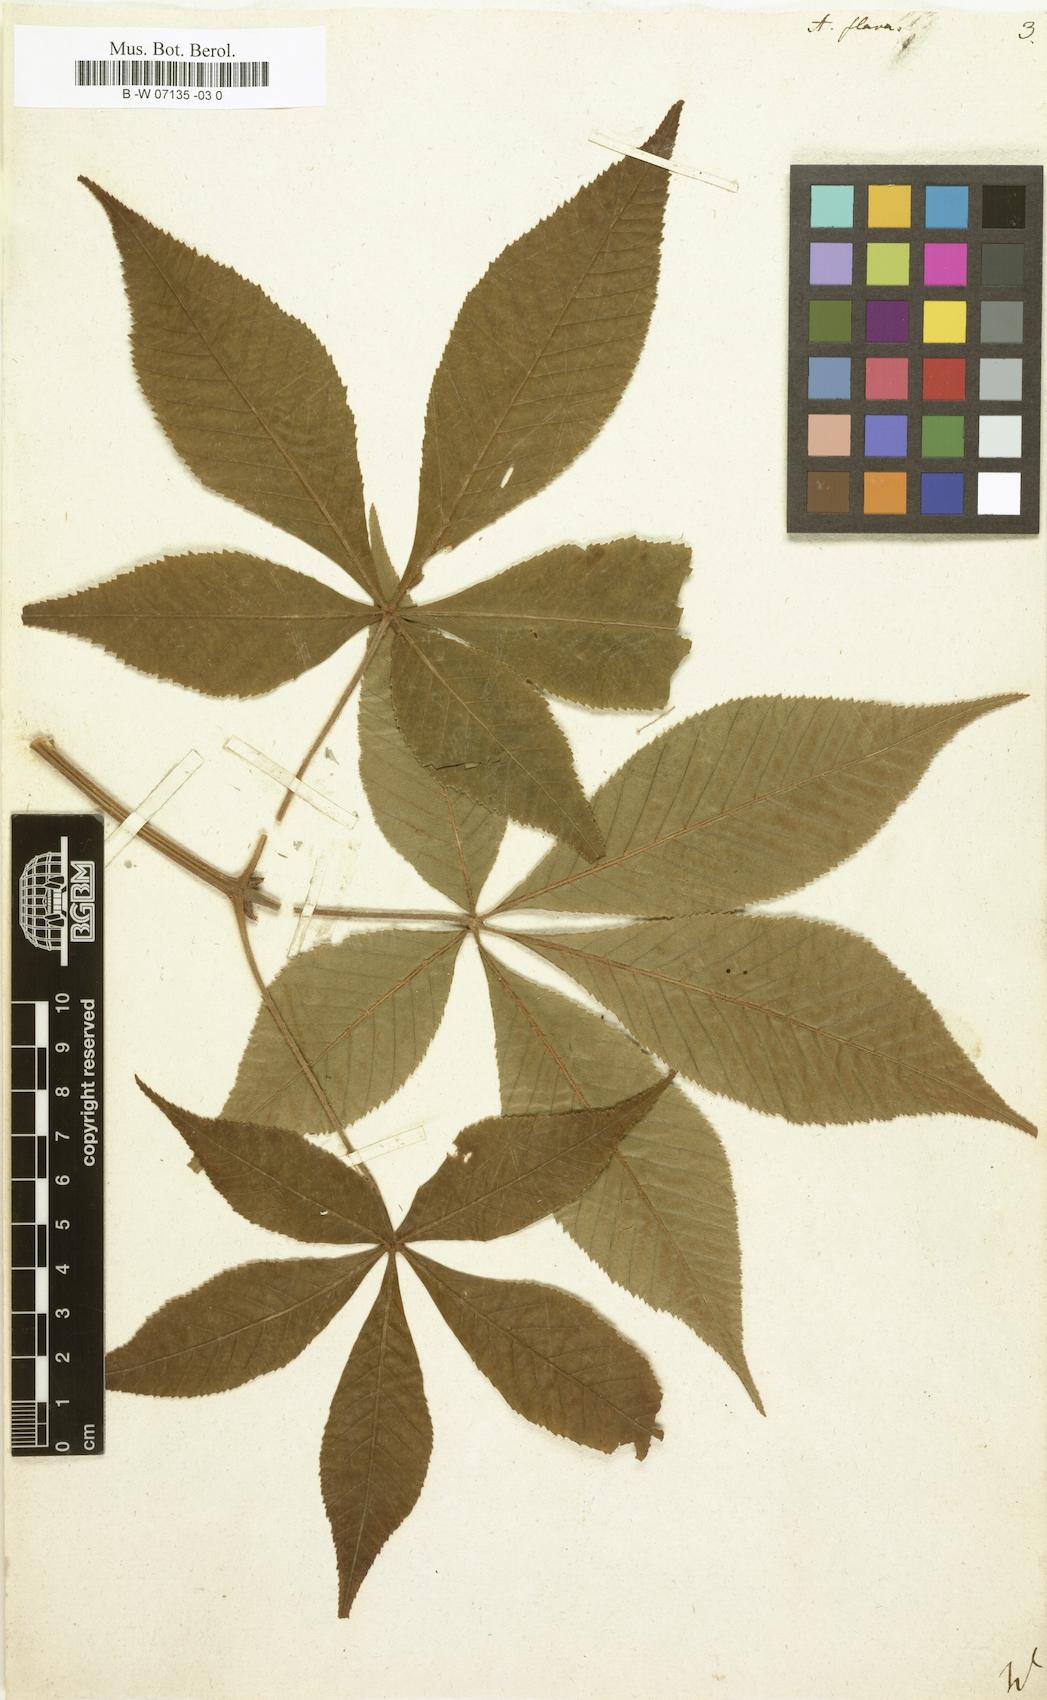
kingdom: Plantae
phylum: Tracheophyta
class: Magnoliopsida
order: Sapindales
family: Sapindaceae
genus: Aesculus
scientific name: Aesculus flava
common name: Yellow buckeye
